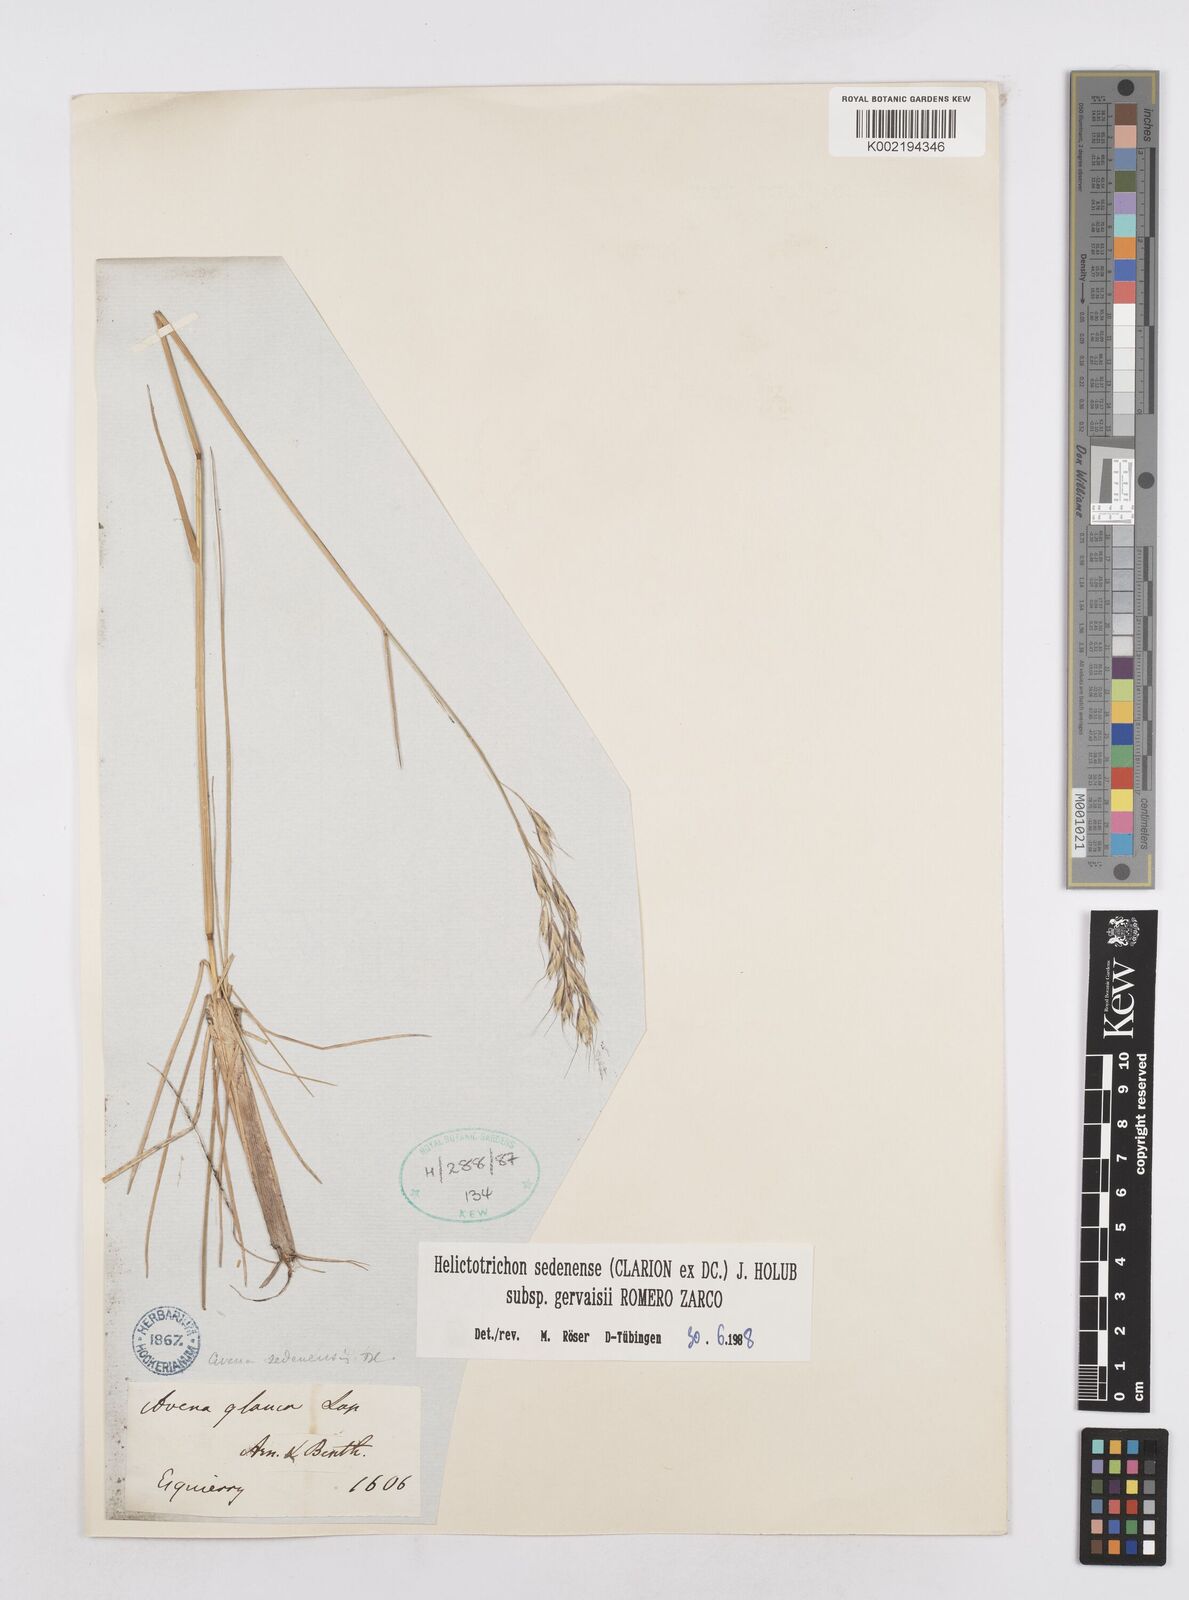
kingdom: Plantae
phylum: Tracheophyta
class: Liliopsida
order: Poales
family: Poaceae
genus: Helictotrichon
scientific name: Helictotrichon sedenense
